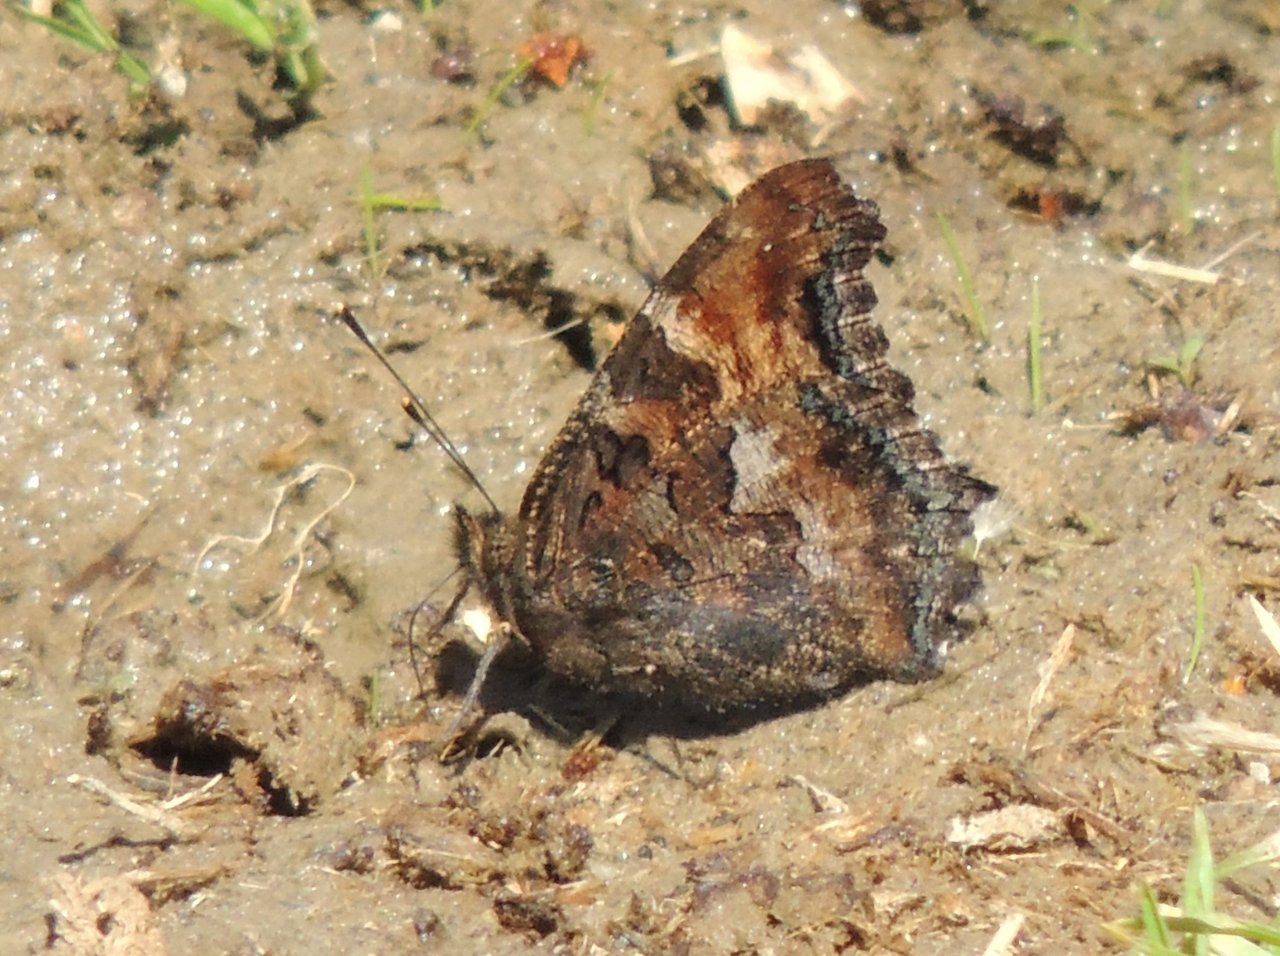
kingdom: Animalia
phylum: Arthropoda
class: Insecta
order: Lepidoptera
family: Nymphalidae
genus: Nymphalis
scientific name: Nymphalis californica
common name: California Tortoiseshell
